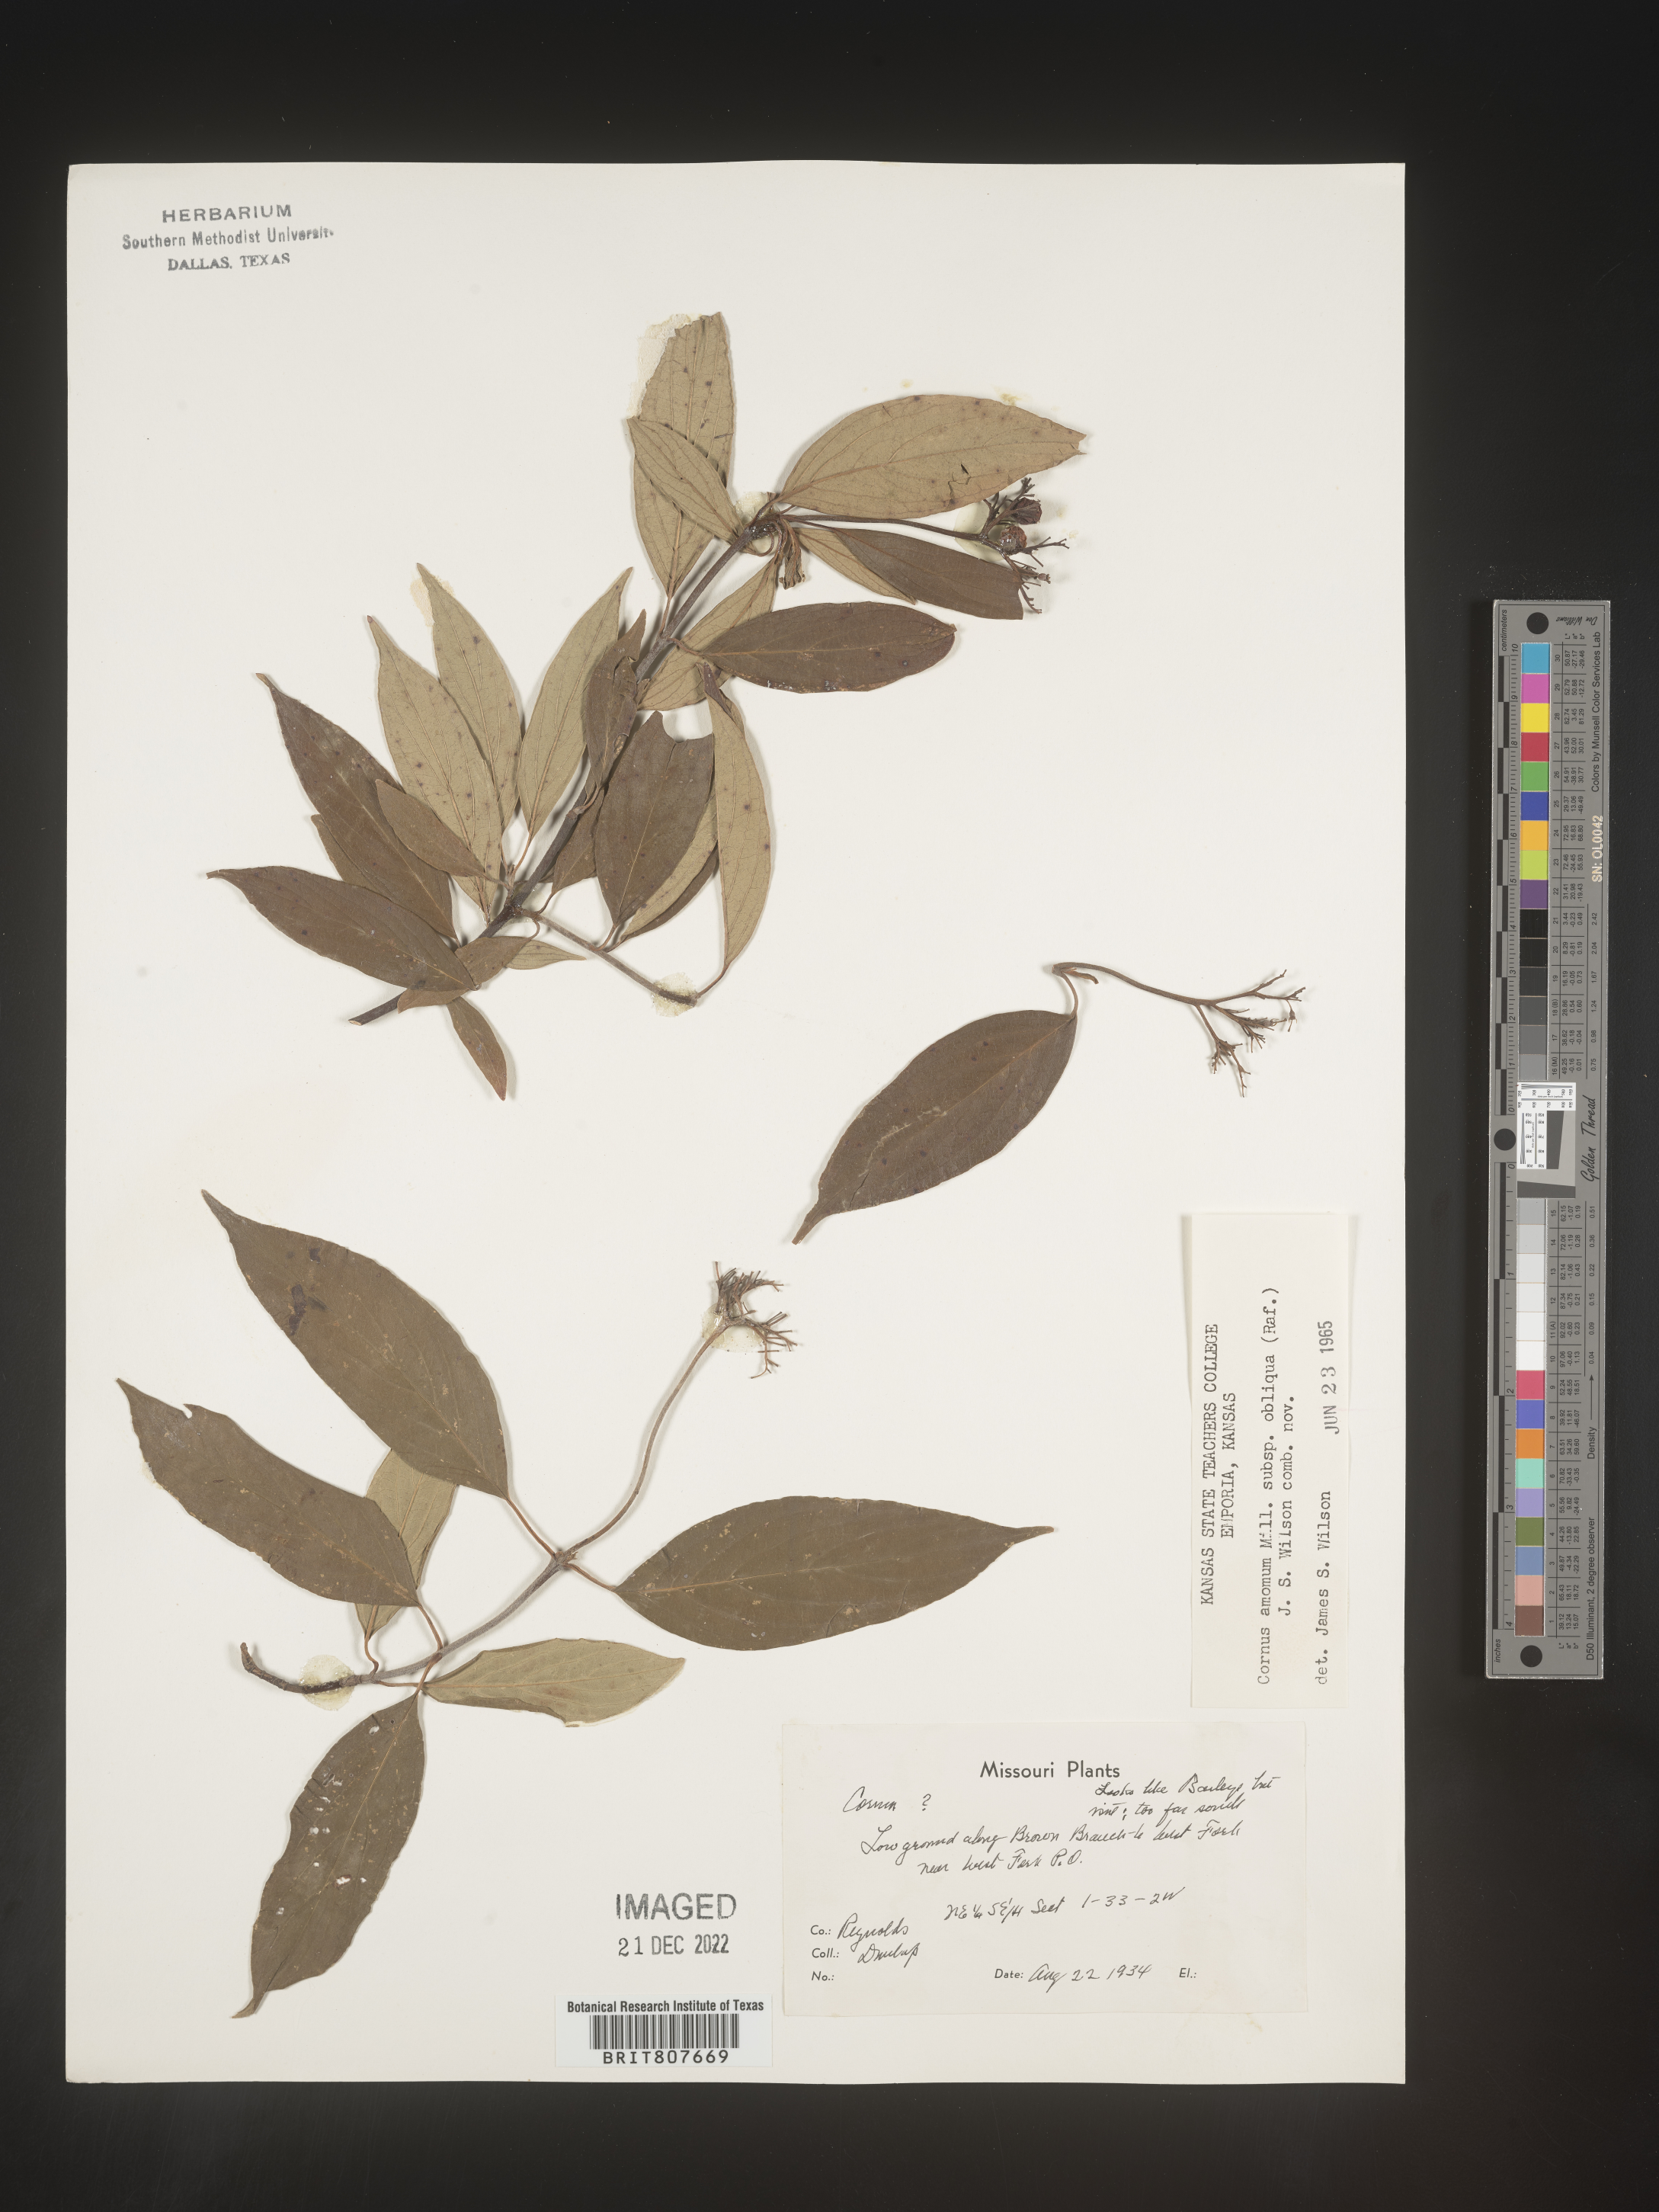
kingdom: Plantae
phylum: Tracheophyta
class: Magnoliopsida
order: Cornales
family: Cornaceae
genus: Cornus
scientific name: Cornus obliqua
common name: Pale dogwood
